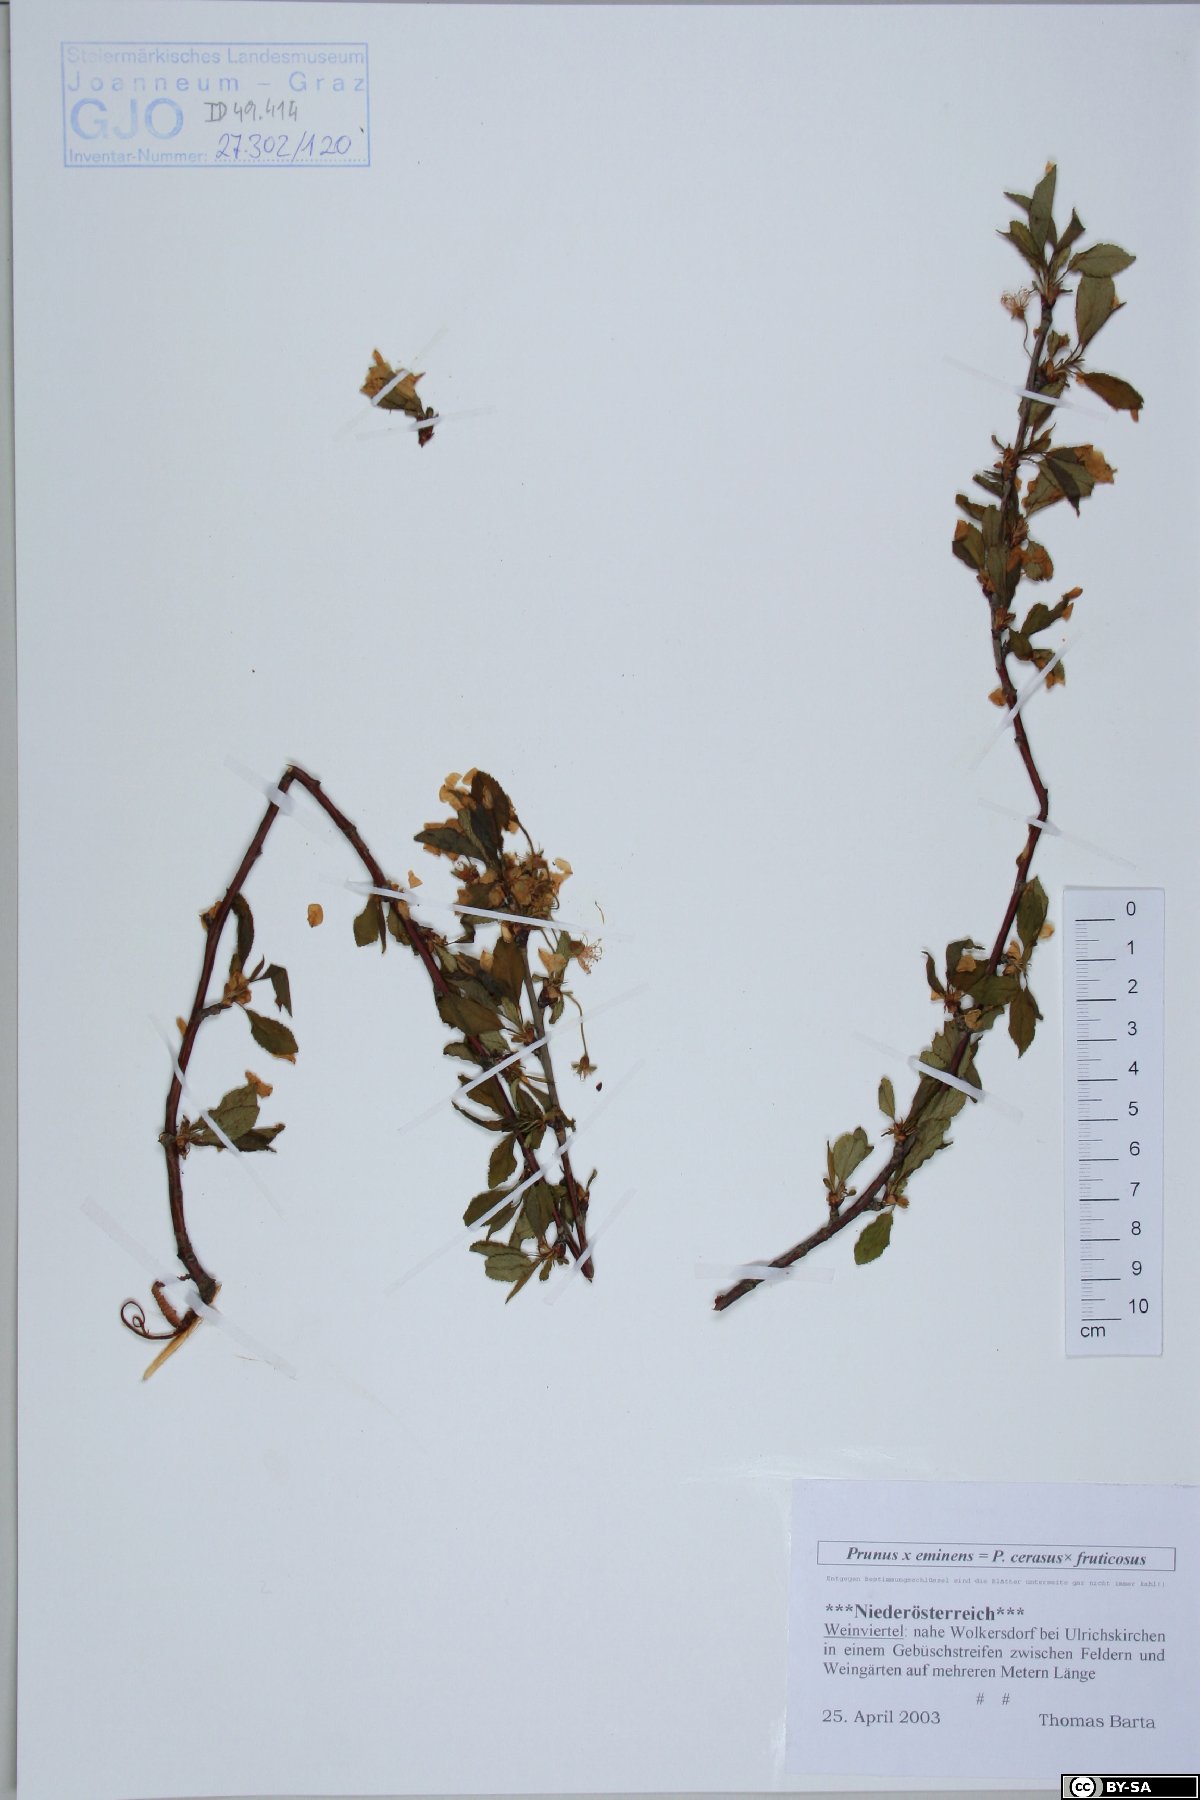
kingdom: Plantae
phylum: Tracheophyta
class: Magnoliopsida
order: Rosales
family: Rosaceae
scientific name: Rosaceae
